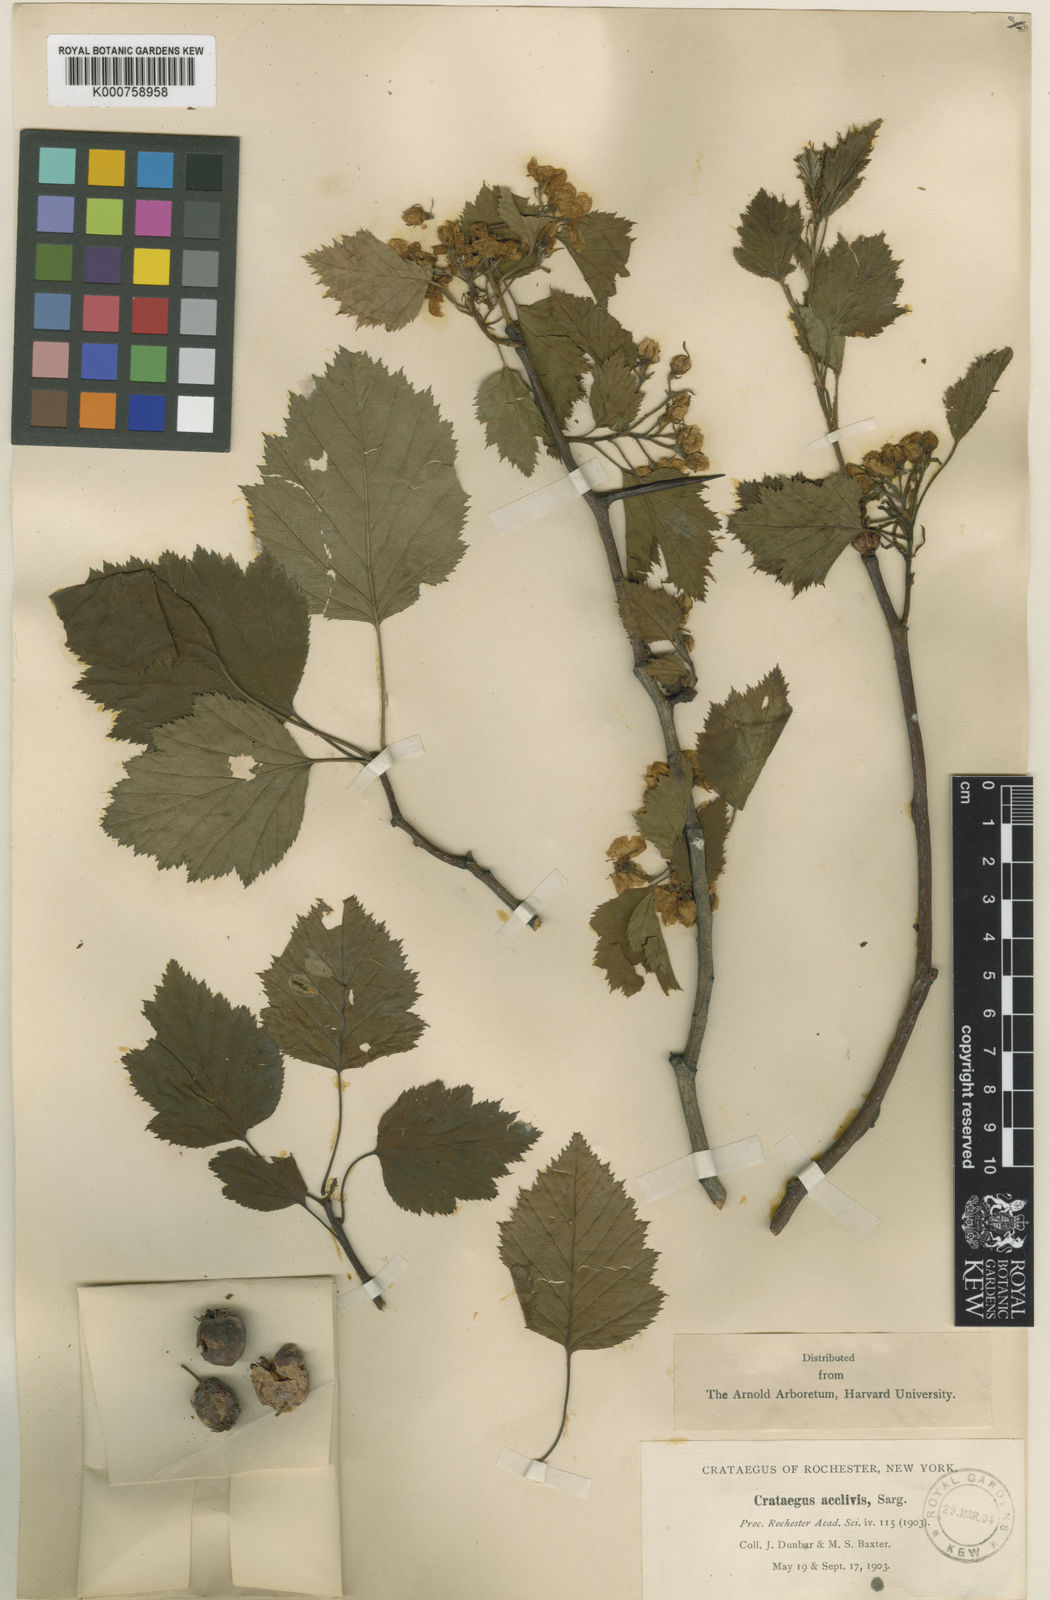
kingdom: Plantae
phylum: Tracheophyta
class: Magnoliopsida
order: Rosales
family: Rosaceae
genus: Crataegus
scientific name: Crataegus coccinea
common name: Scarlet hawthorn
